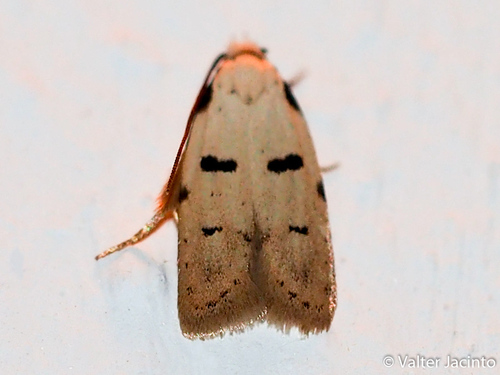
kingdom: Animalia
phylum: Arthropoda
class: Insecta
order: Lepidoptera
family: Autostichidae
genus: Stibaromacha
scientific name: Stibaromacha ratella
